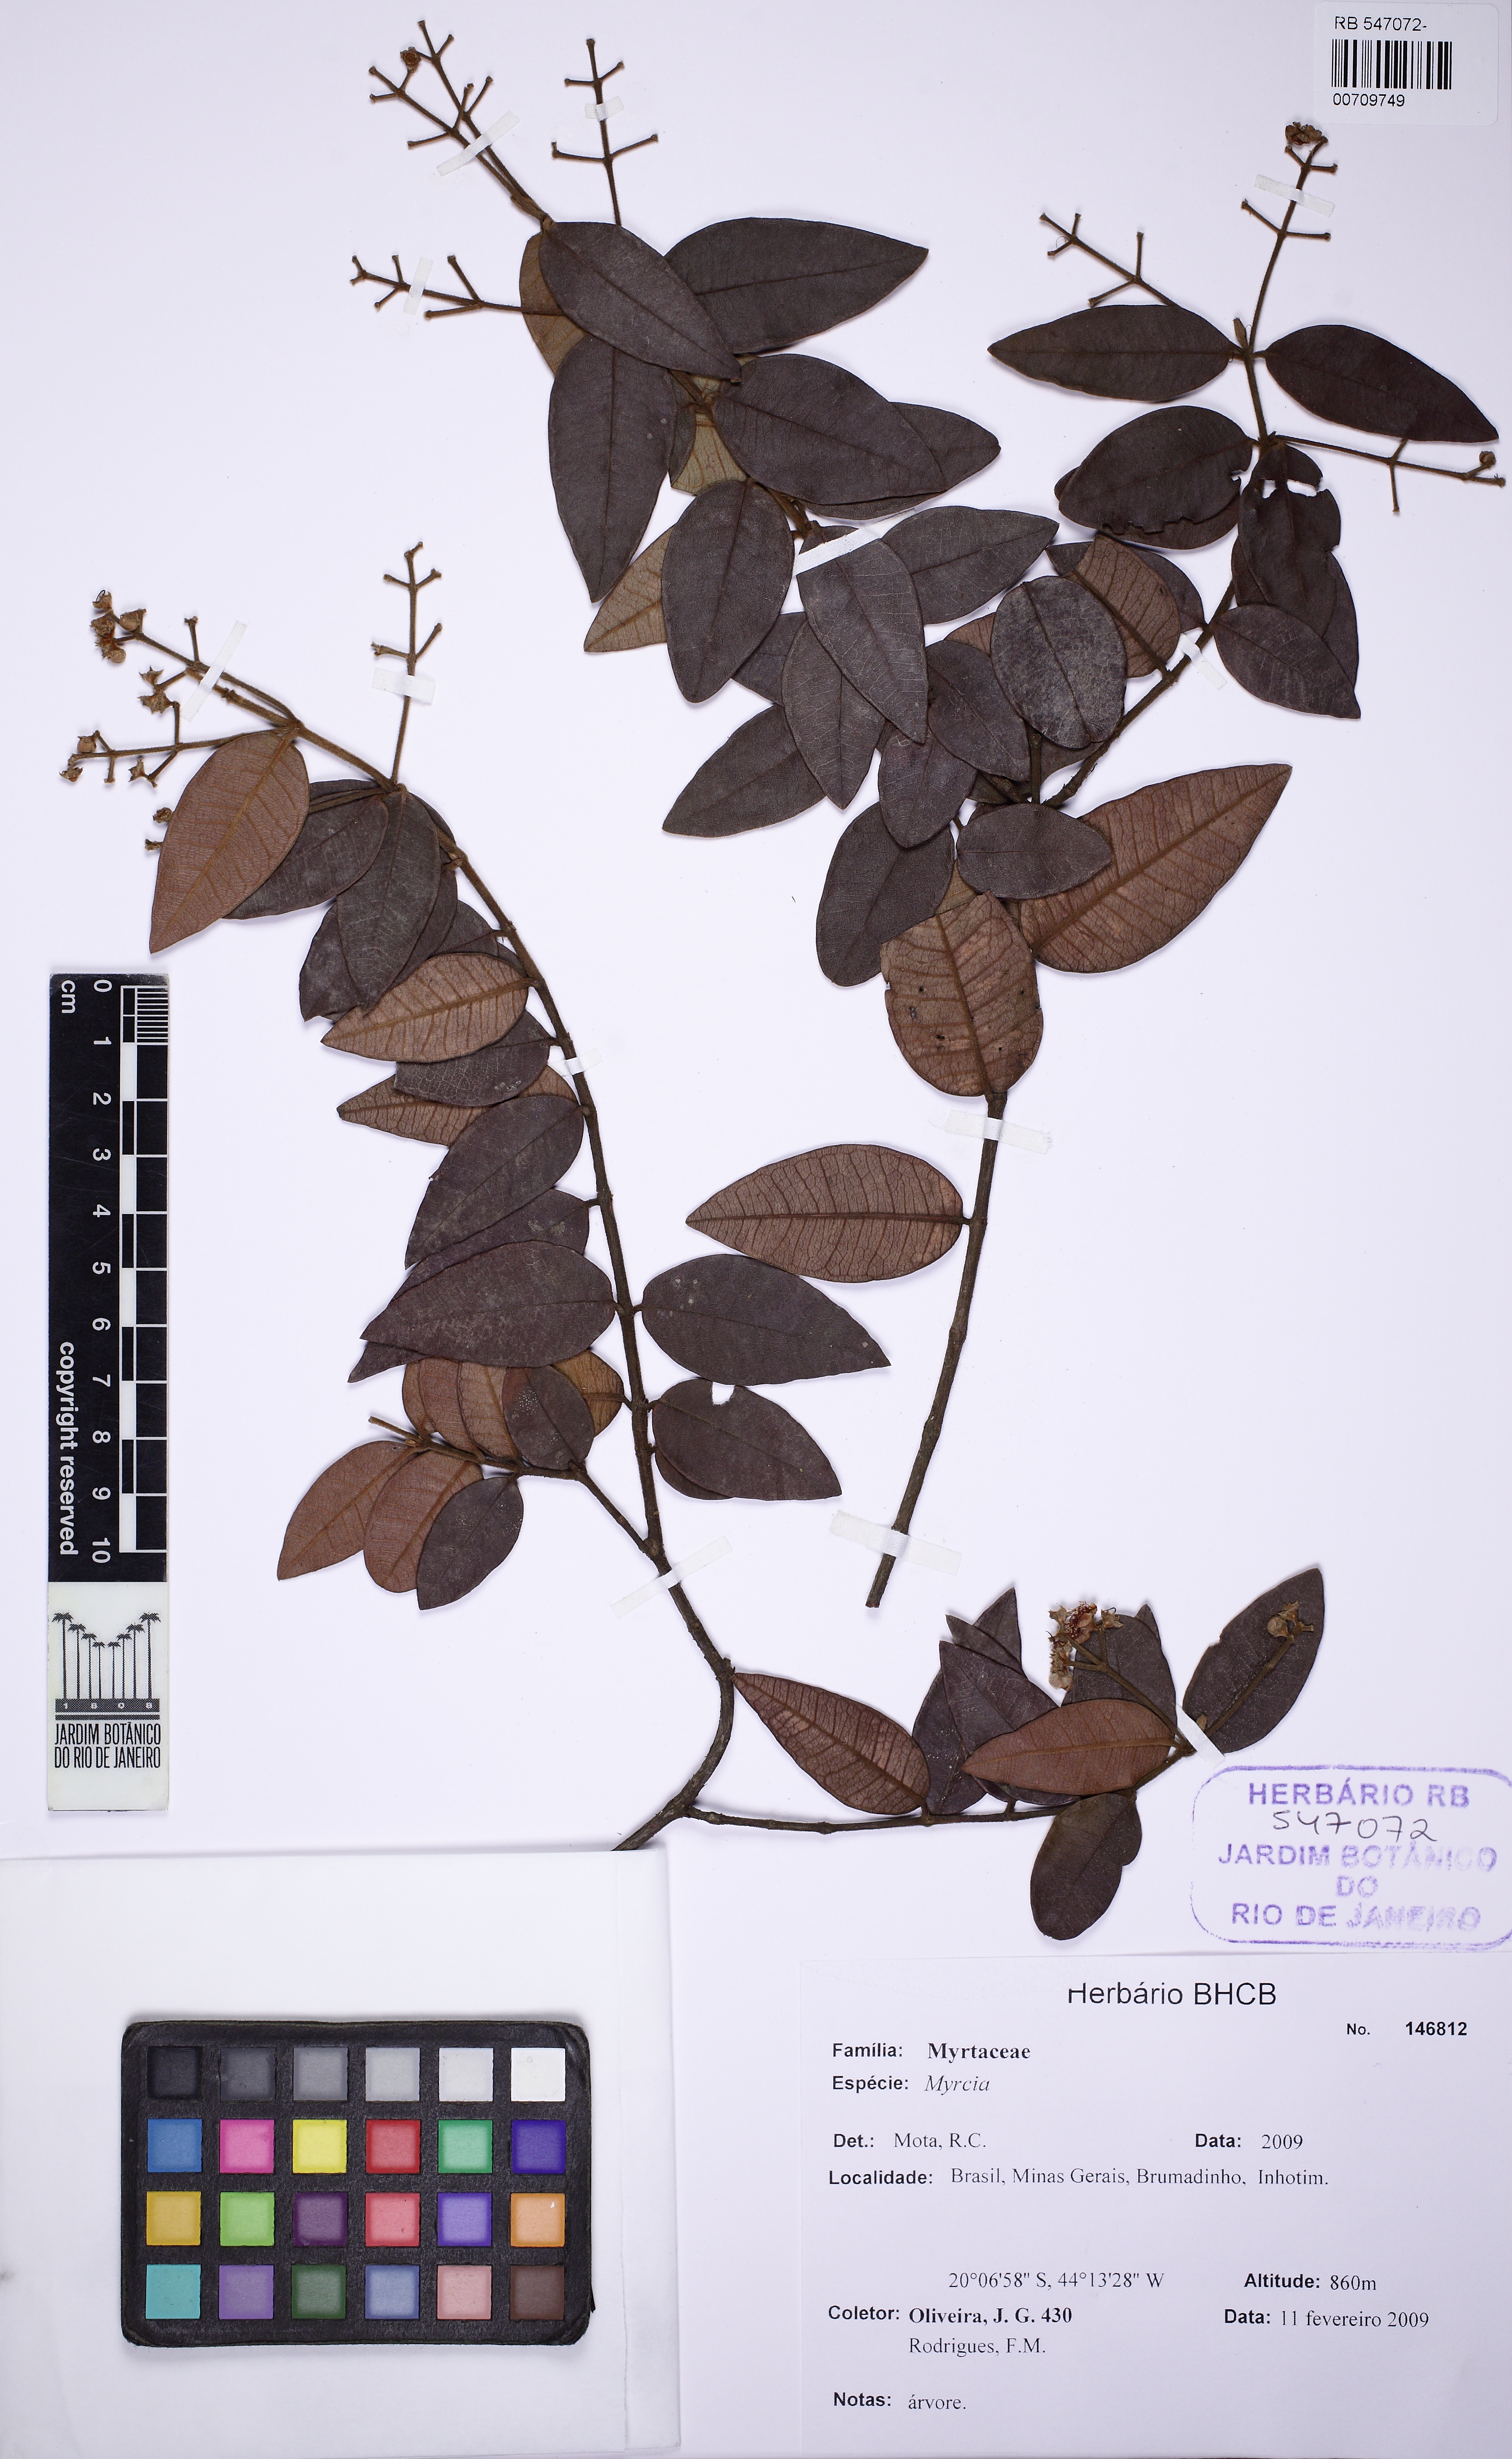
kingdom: Plantae
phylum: Tracheophyta
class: Magnoliopsida
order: Myrtales
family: Myrtaceae
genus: Myrcia
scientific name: Myrcia eriocalyx
